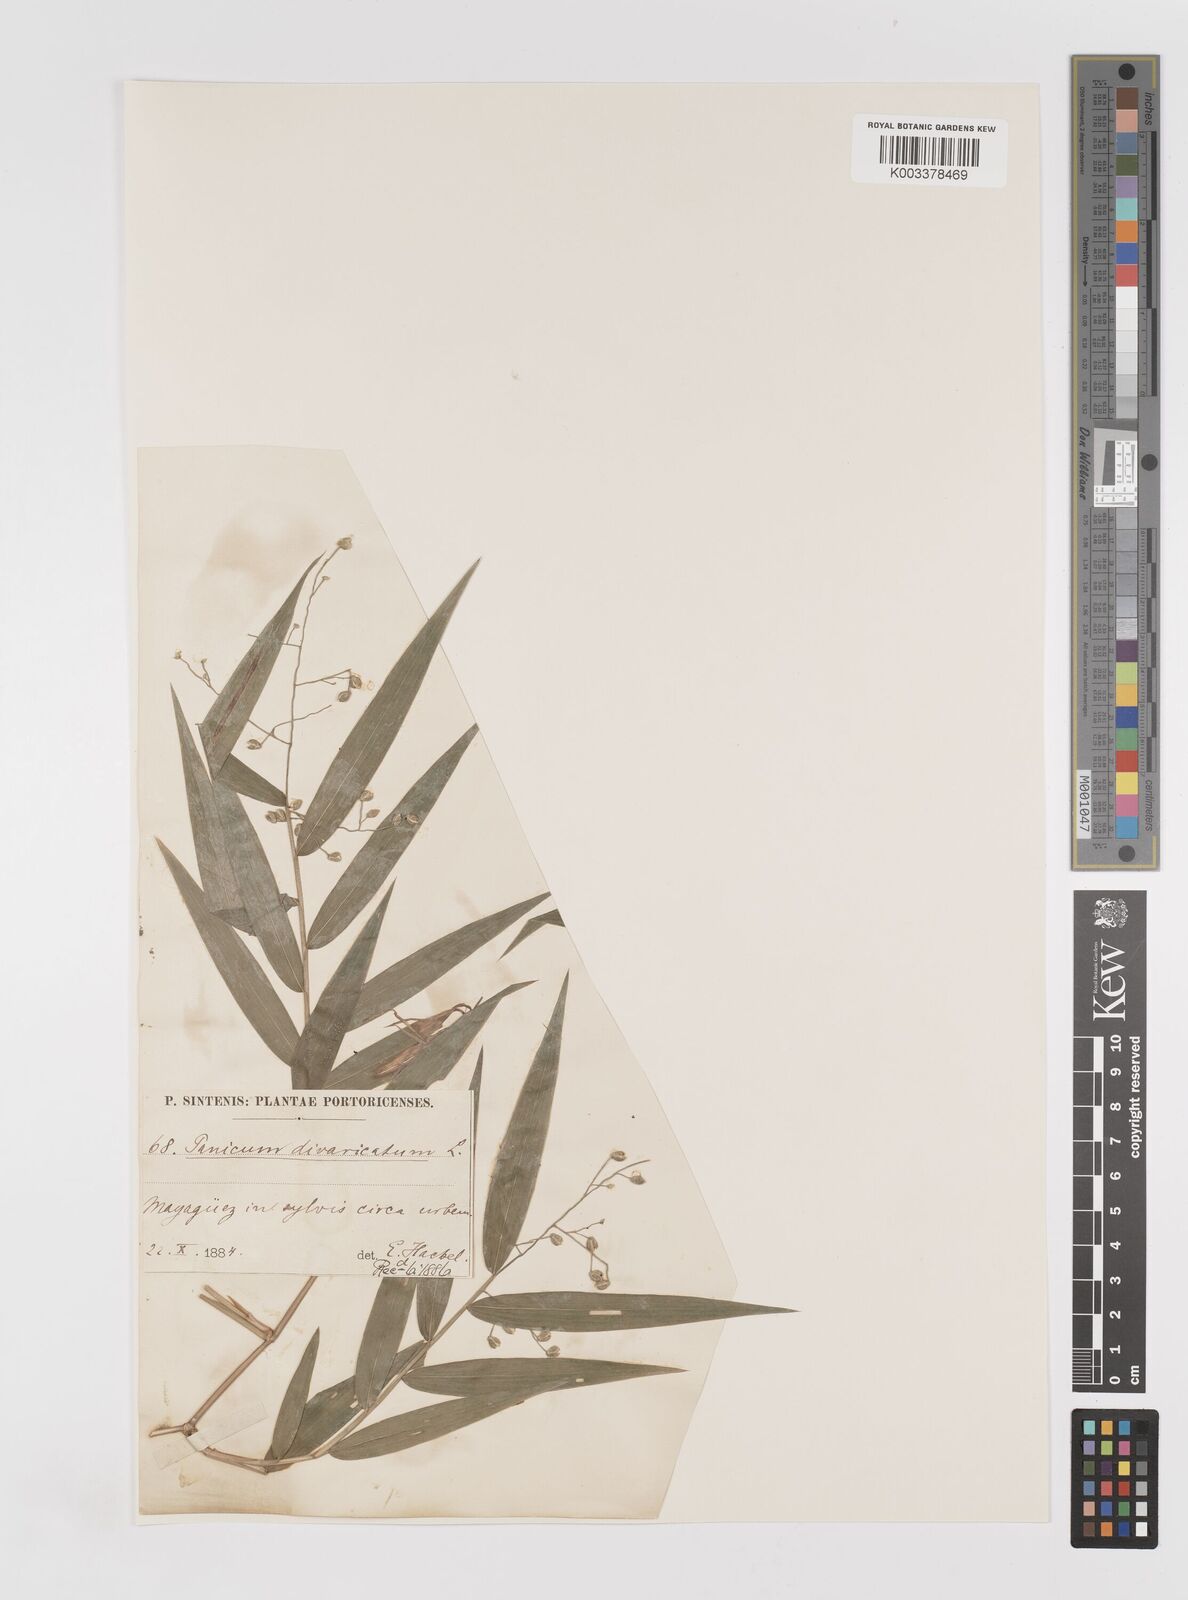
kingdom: Plantae
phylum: Tracheophyta
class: Liliopsida
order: Poales
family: Poaceae
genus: Lasiacis
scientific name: Lasiacis divaricata
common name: Smallcane
